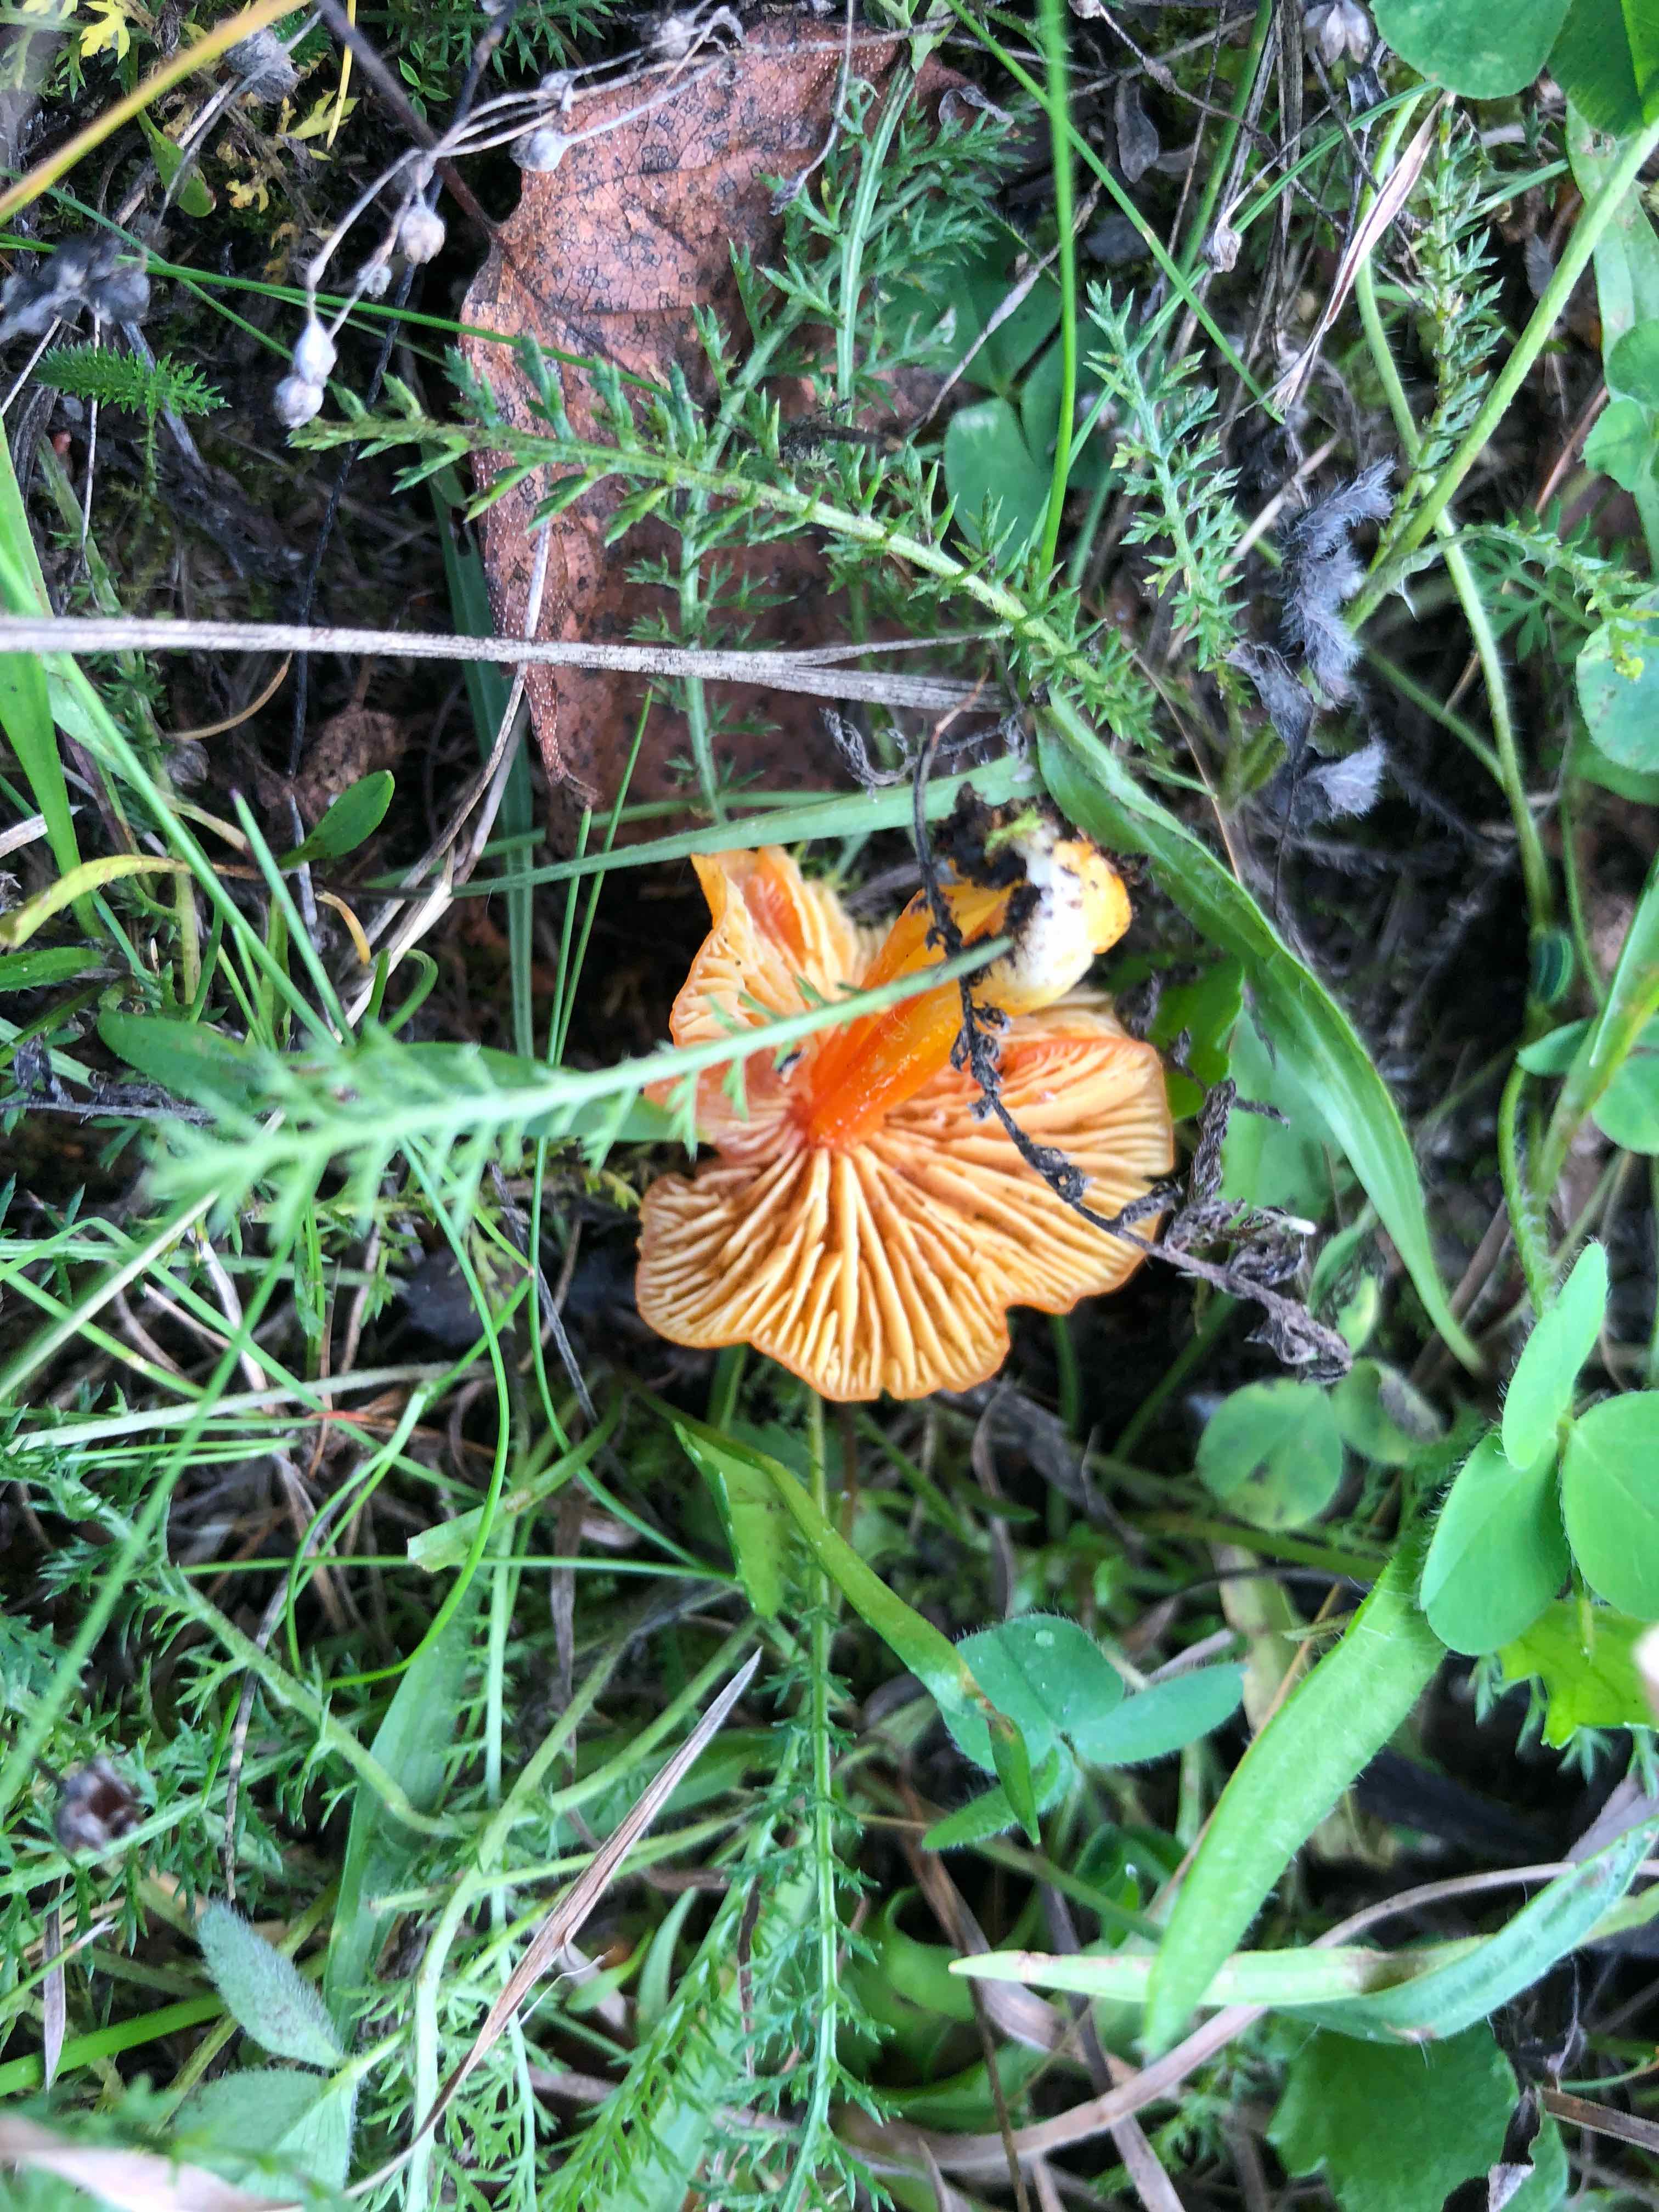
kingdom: Fungi
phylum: Basidiomycota
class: Agaricomycetes
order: Agaricales
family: Hygrophoraceae
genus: Hygrocybe
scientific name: Hygrocybe
